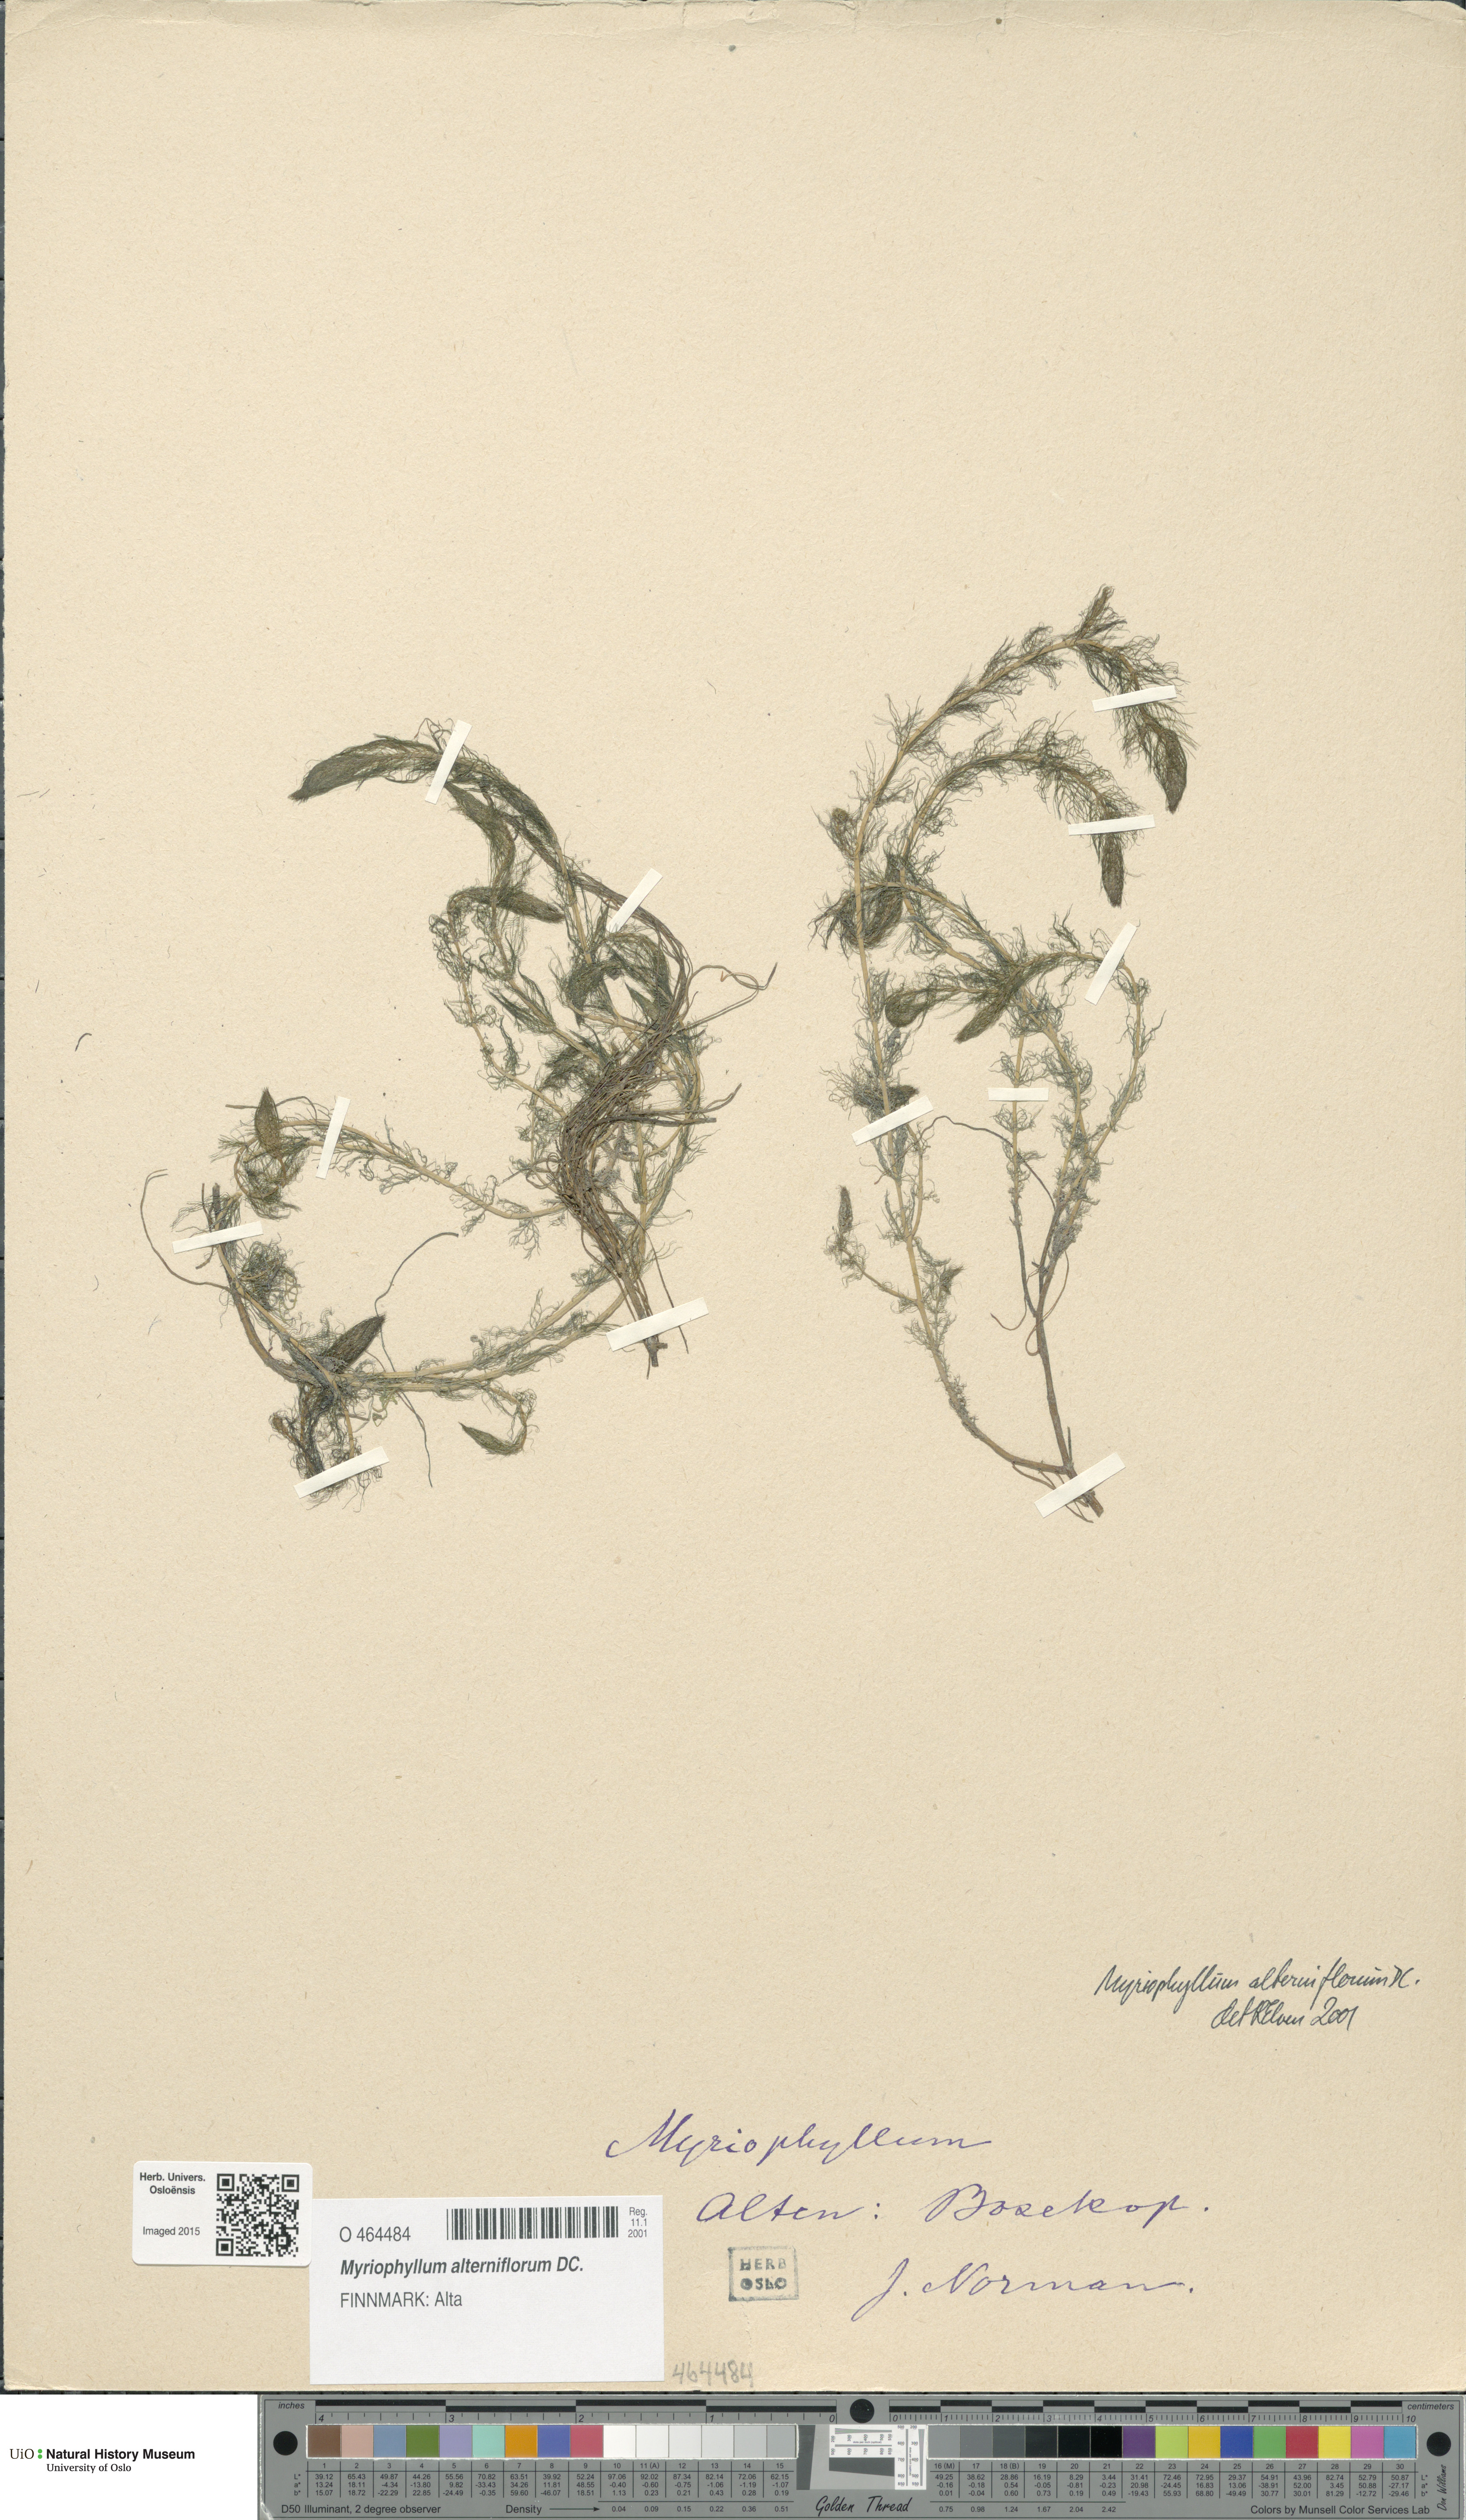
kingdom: Plantae
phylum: Tracheophyta
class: Magnoliopsida
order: Saxifragales
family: Haloragaceae
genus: Myriophyllum
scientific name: Myriophyllum alterniflorum
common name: Alternate water-milfoil
